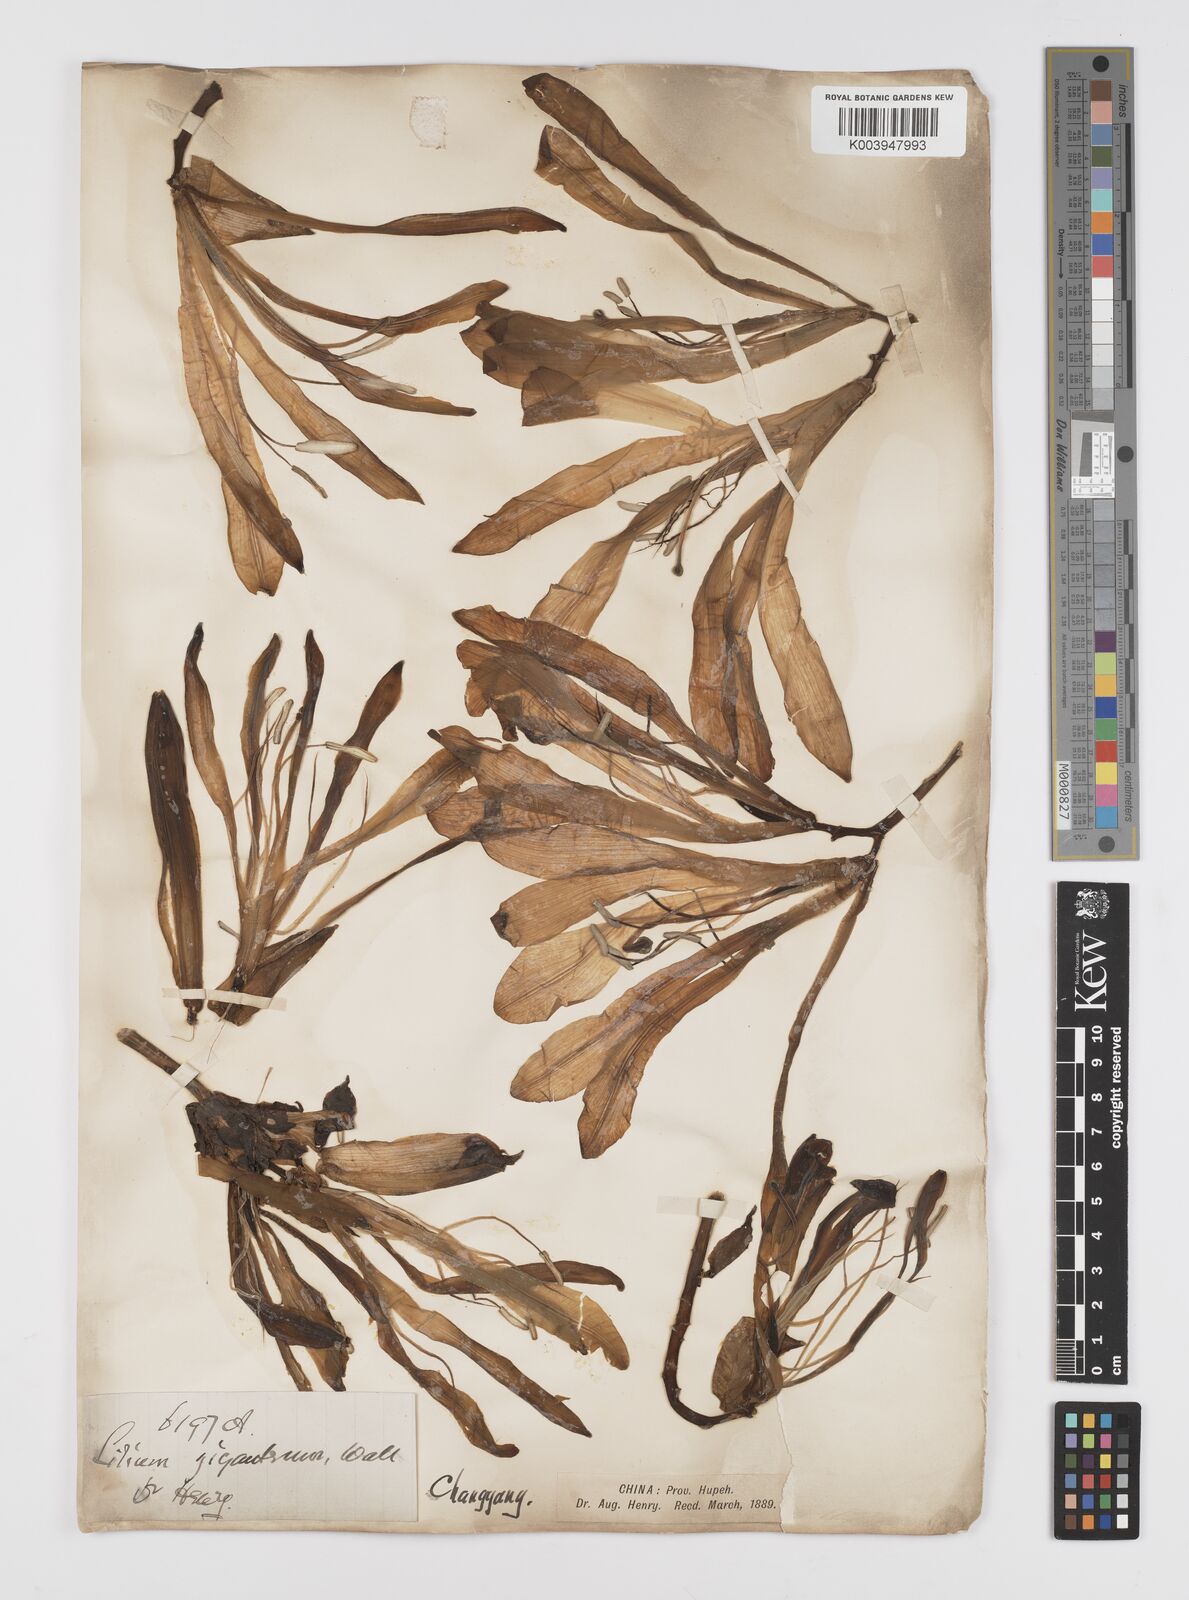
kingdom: Plantae
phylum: Tracheophyta
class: Liliopsida
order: Liliales
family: Liliaceae
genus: Cardiocrinum
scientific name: Cardiocrinum cathayanum
